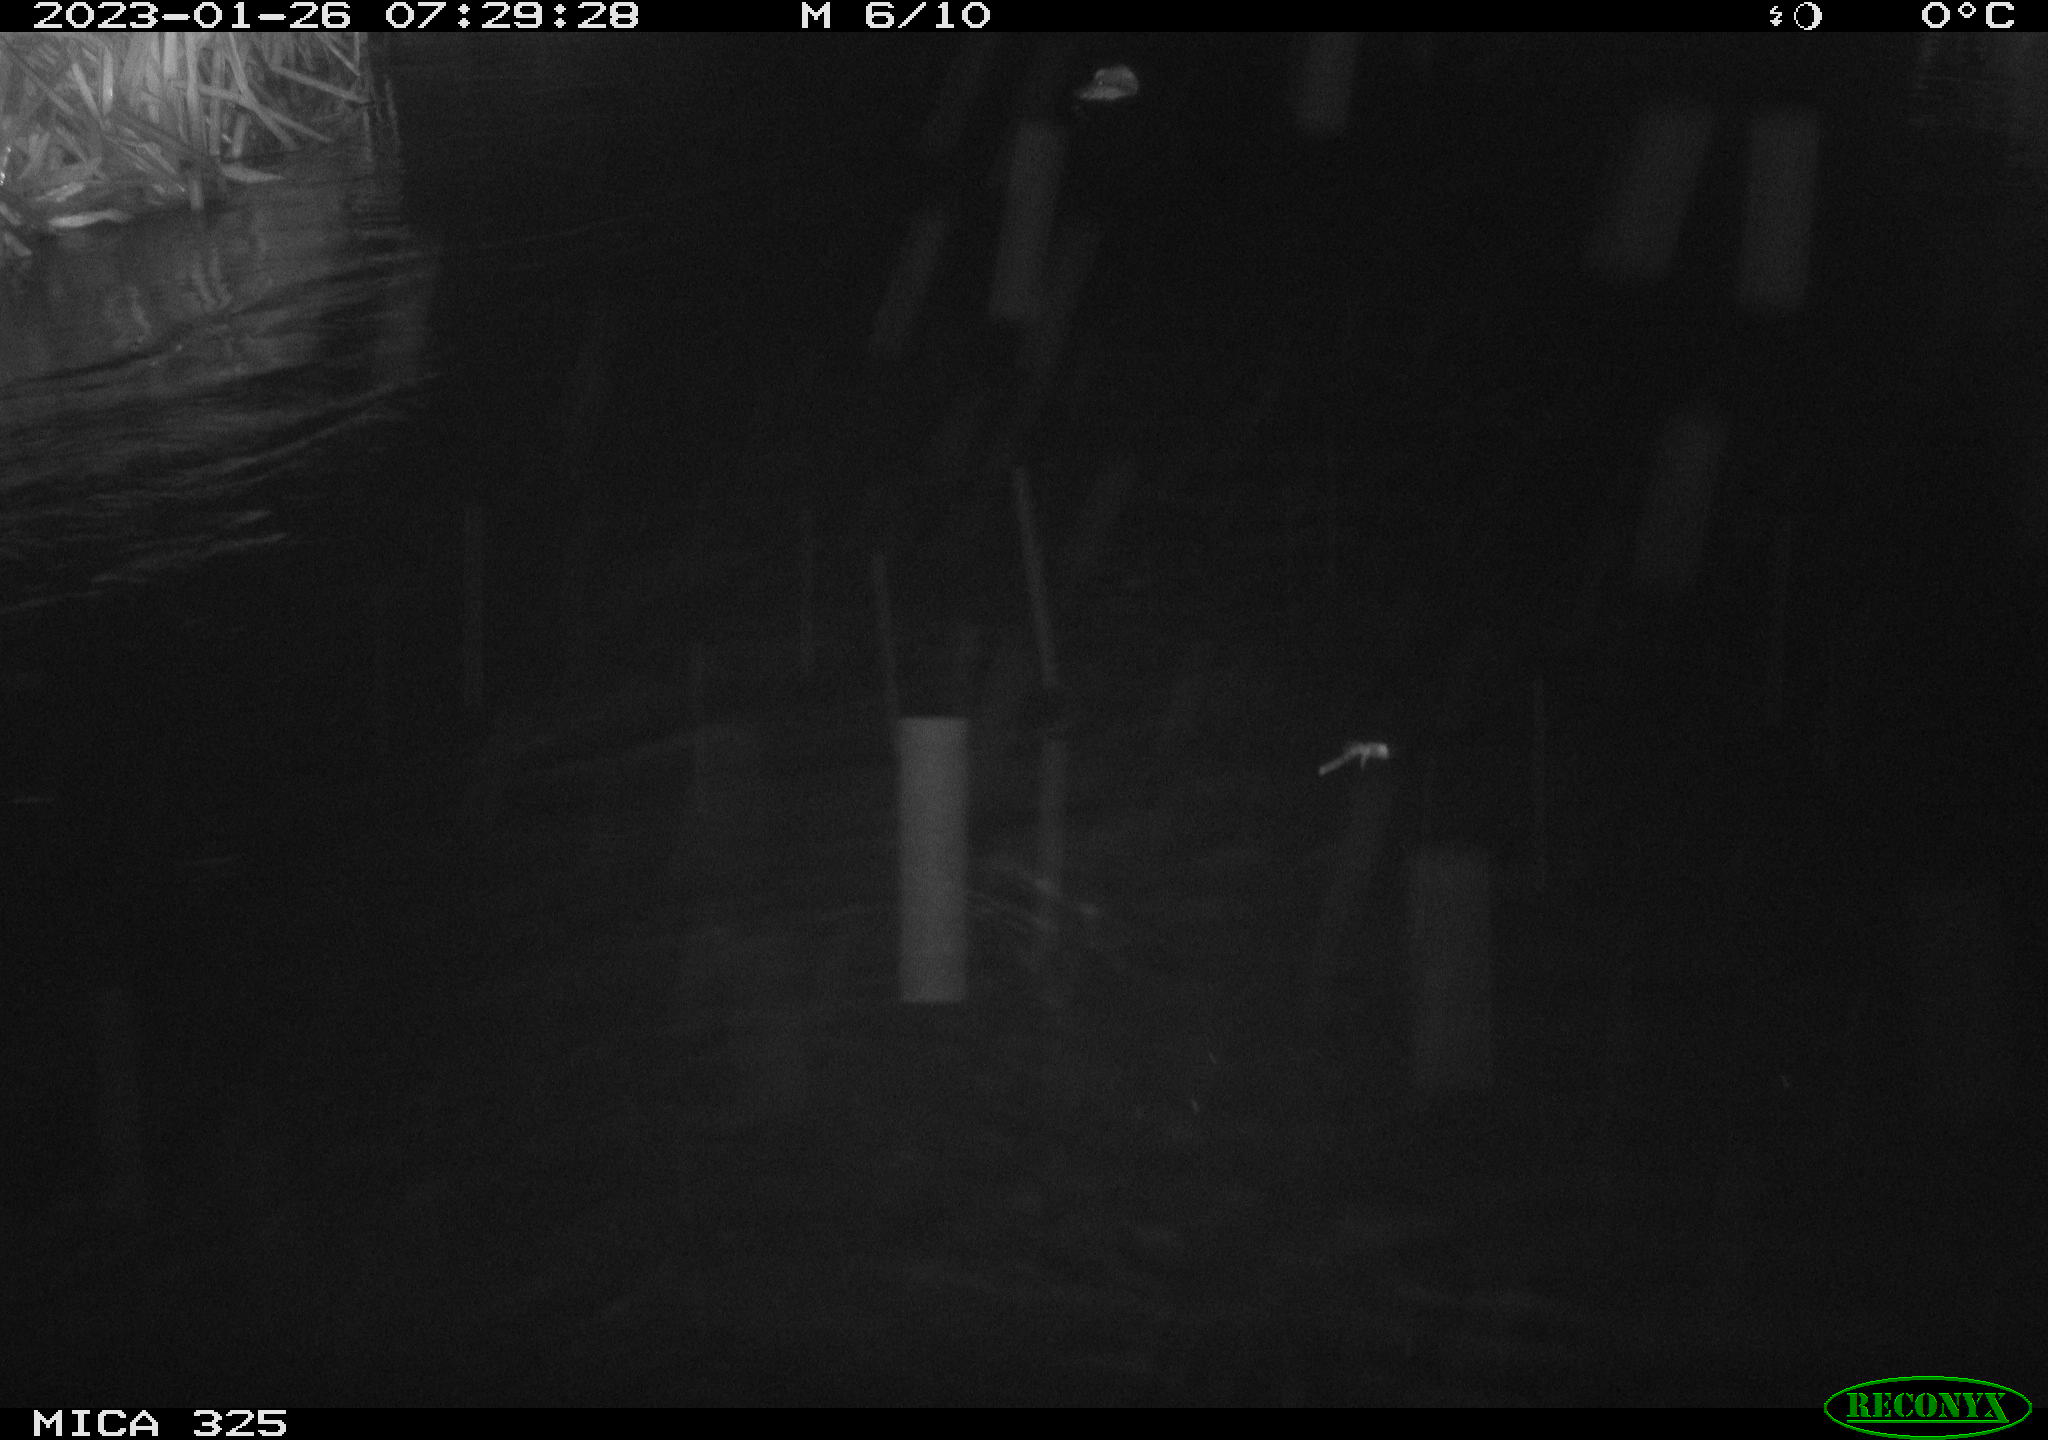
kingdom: Animalia
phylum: Chordata
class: Mammalia
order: Rodentia
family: Cricetidae
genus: Ondatra
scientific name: Ondatra zibethicus
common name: Muskrat
